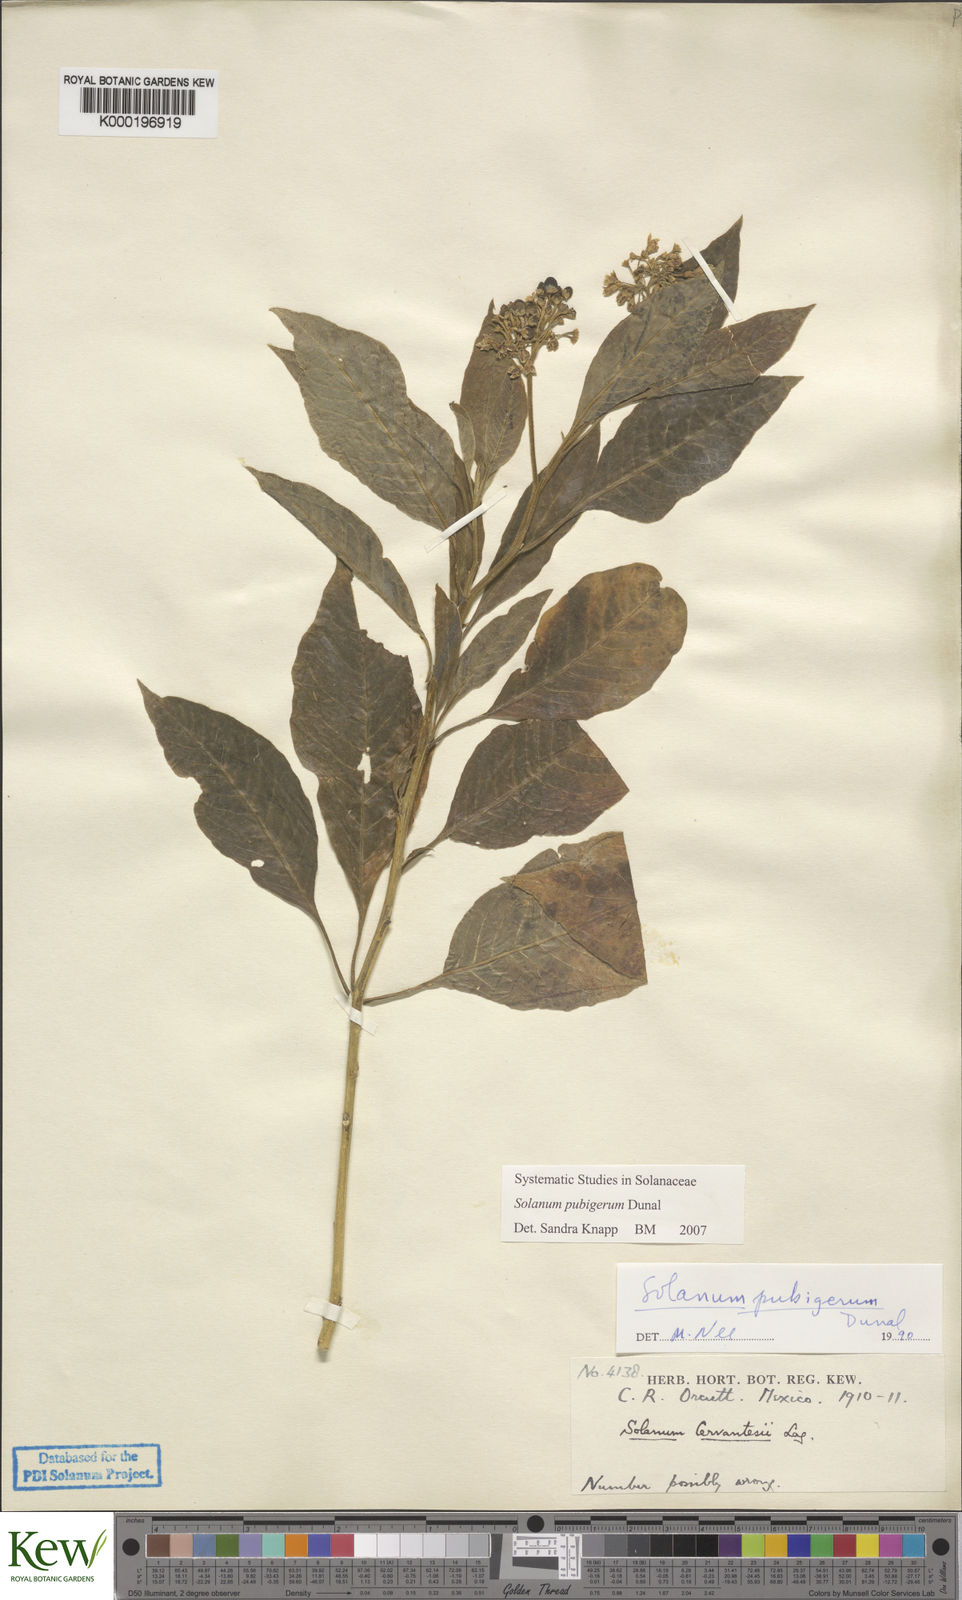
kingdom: Plantae
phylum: Tracheophyta
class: Magnoliopsida
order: Solanales
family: Solanaceae
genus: Solanum
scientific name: Solanum pubigerum
